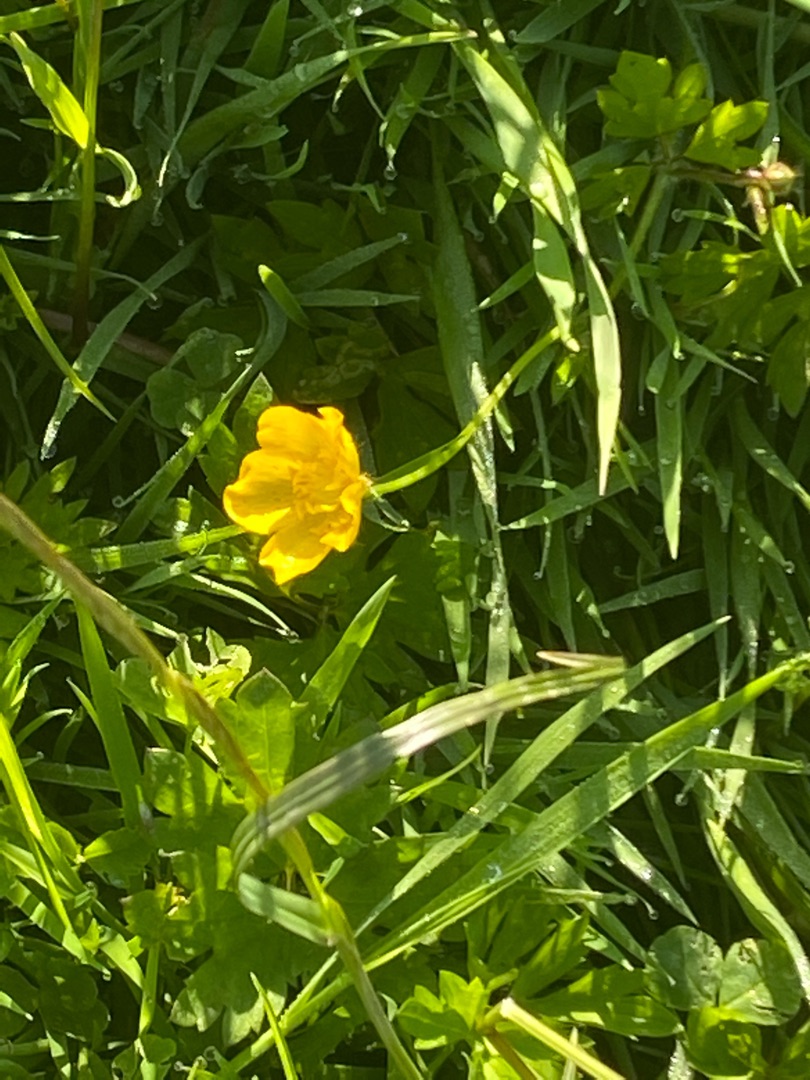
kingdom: Plantae
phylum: Tracheophyta
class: Magnoliopsida
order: Ranunculales
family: Ranunculaceae
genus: Ranunculus
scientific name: Ranunculus repens
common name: Lav ranunkel
